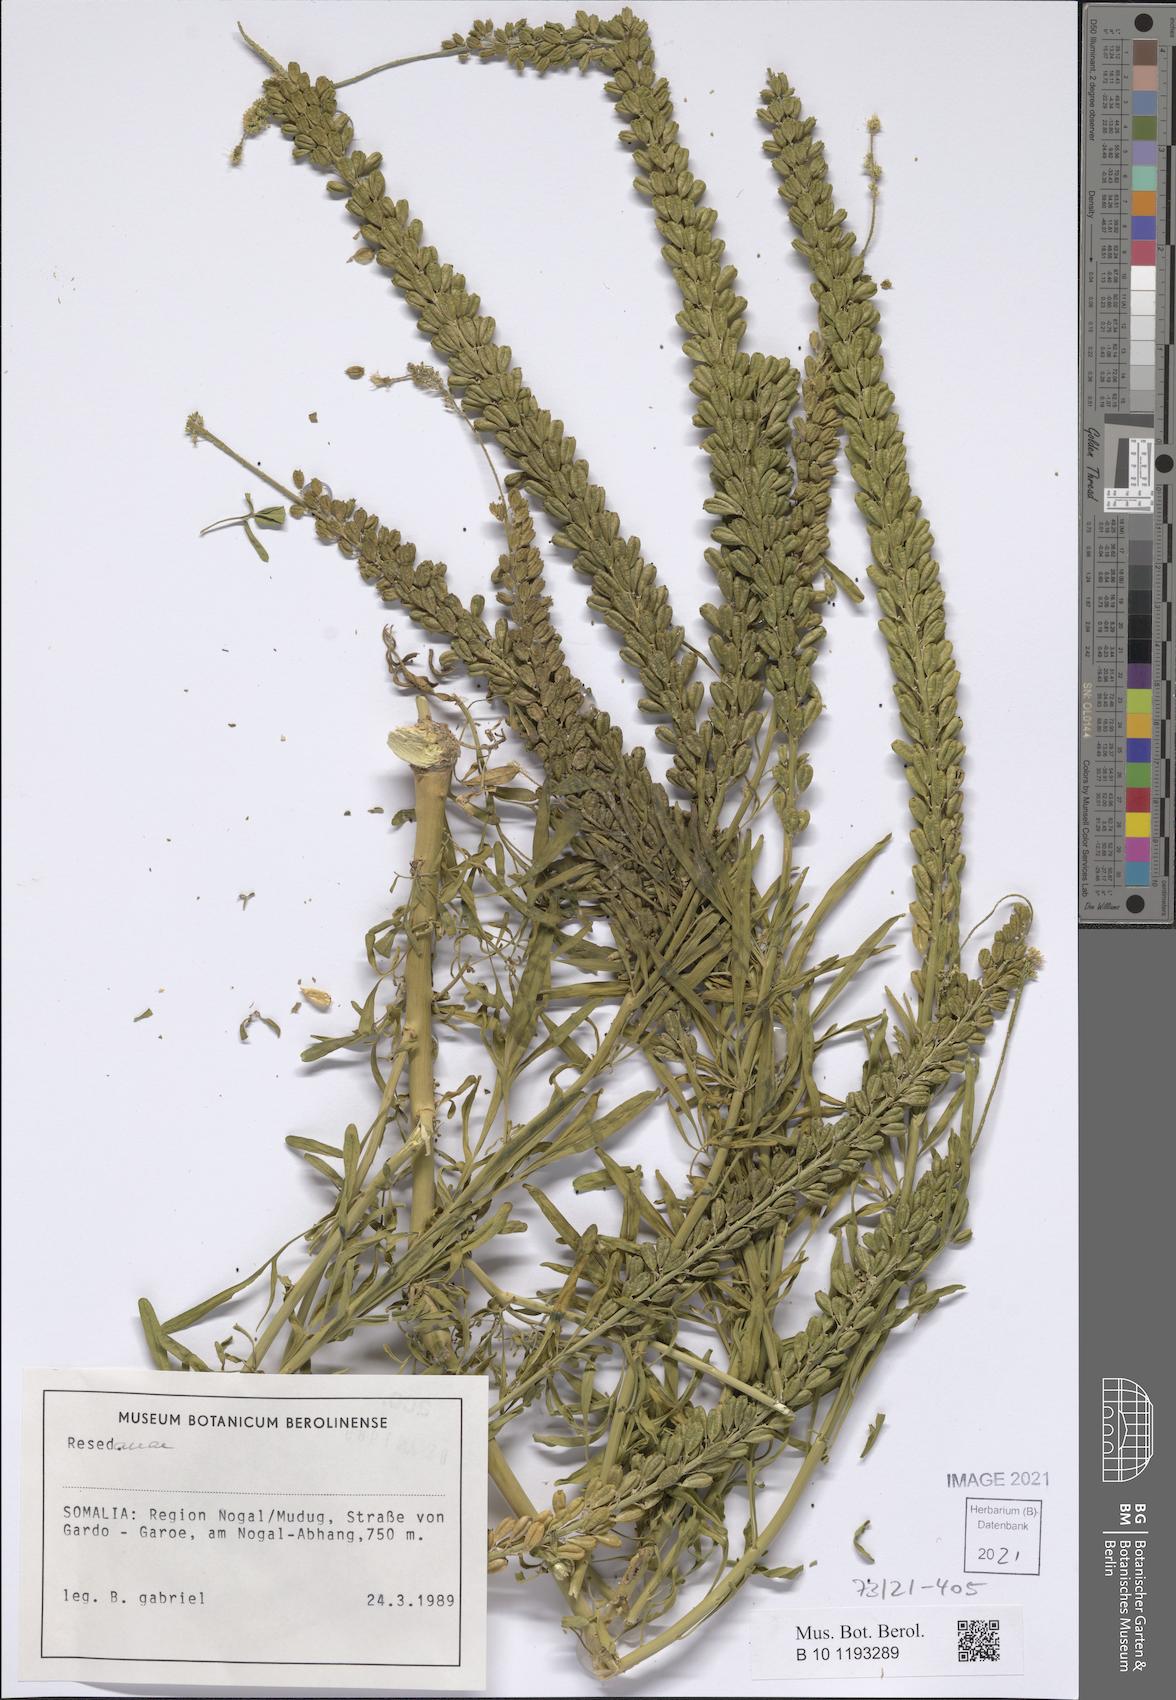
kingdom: Plantae
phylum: Tracheophyta
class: Magnoliopsida
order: Brassicales
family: Resedaceae
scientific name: Resedaceae
